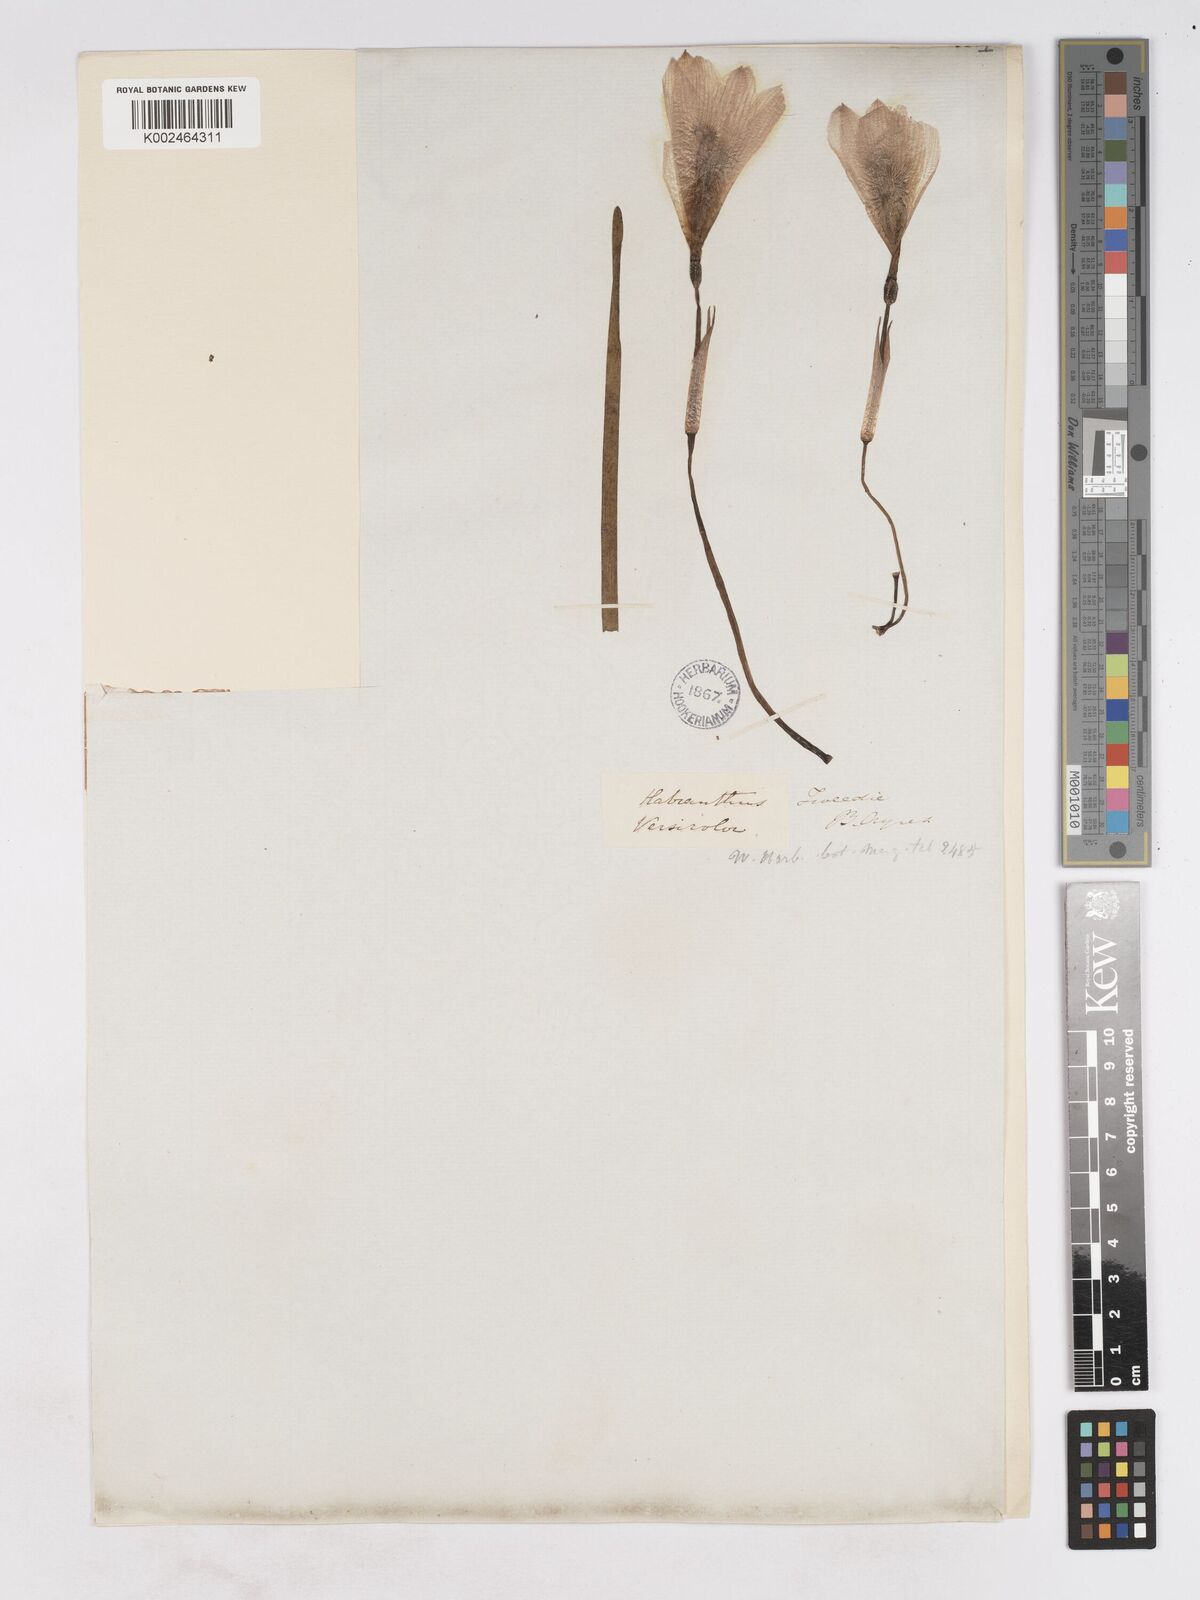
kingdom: Plantae
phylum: Tracheophyta
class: Liliopsida
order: Asparagales
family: Amaryllidaceae
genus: Zephyranthes
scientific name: Zephyranthes
